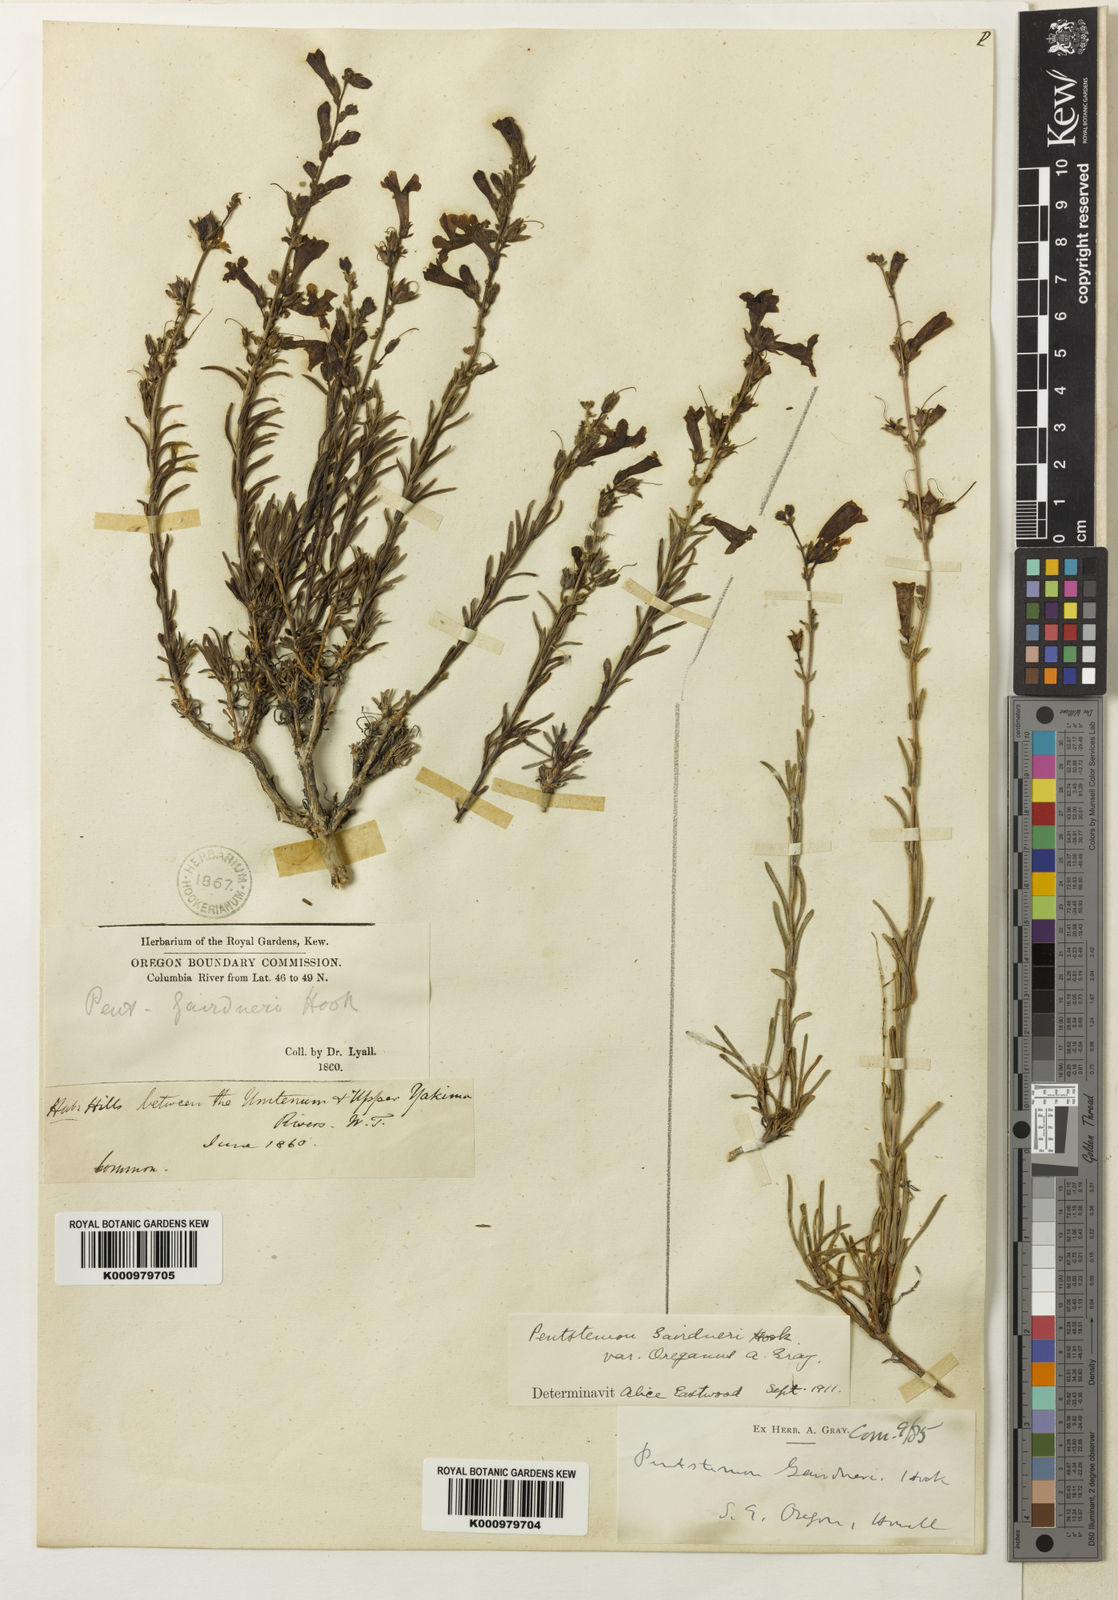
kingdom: Plantae
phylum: Tracheophyta
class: Magnoliopsida
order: Lamiales
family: Plantaginaceae
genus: Penstemon
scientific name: Penstemon gairdneri
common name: Gairdner's penstemon
